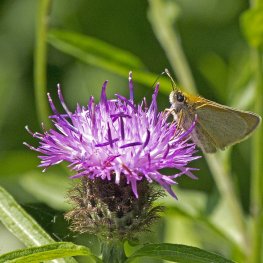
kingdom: Animalia
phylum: Arthropoda
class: Insecta
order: Lepidoptera
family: Hesperiidae
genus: Thymelicus
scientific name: Thymelicus lineola
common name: European Skipper
